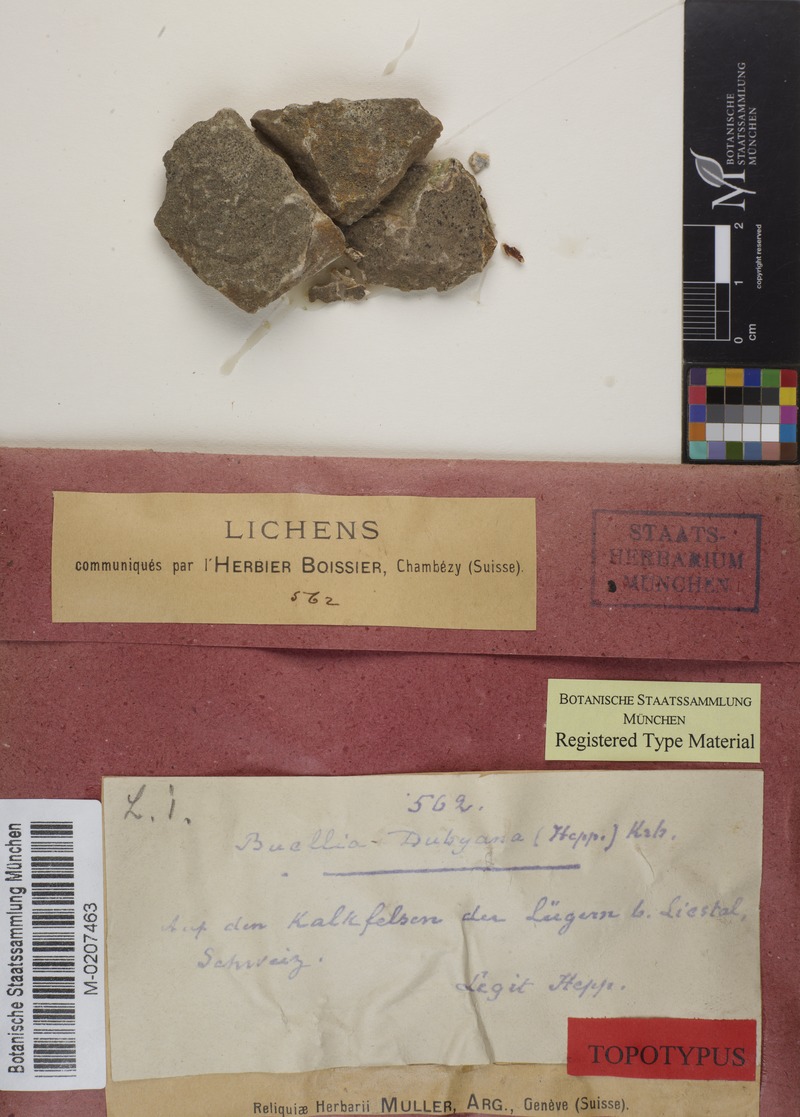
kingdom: Fungi
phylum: Ascomycota
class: Lecanoromycetes
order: Caliciales
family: Physciaceae
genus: Rinodina
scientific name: Rinodina dubyana
